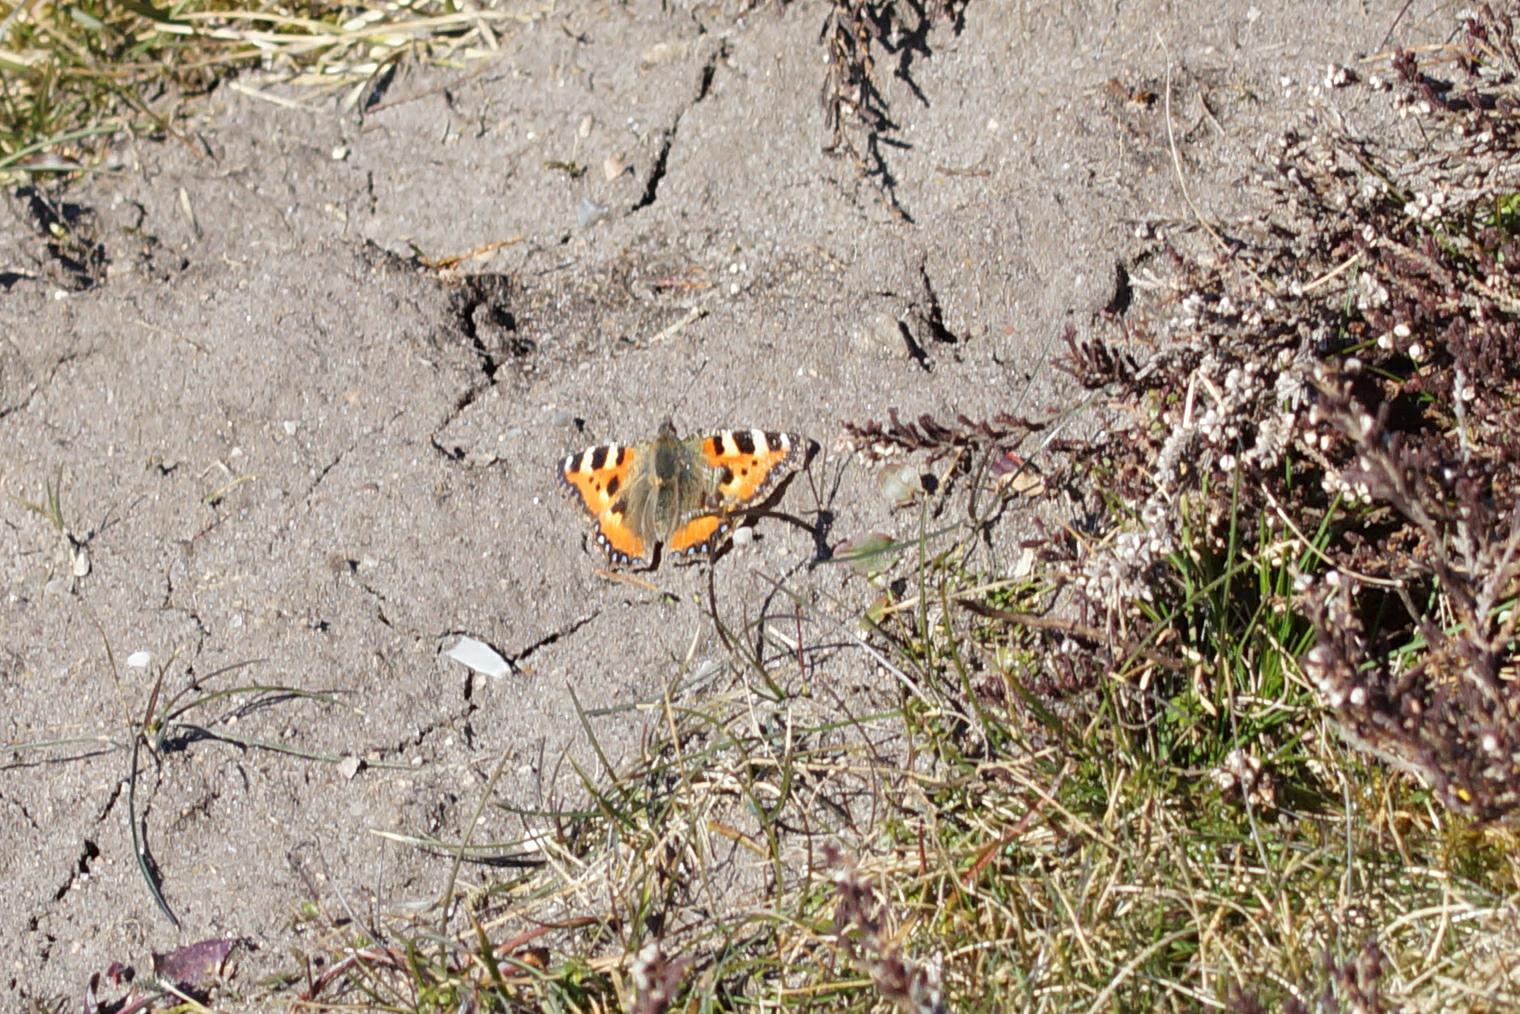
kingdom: Animalia
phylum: Arthropoda
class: Insecta
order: Lepidoptera
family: Nymphalidae
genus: Aglais
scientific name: Aglais urticae
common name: Nældens takvinge
